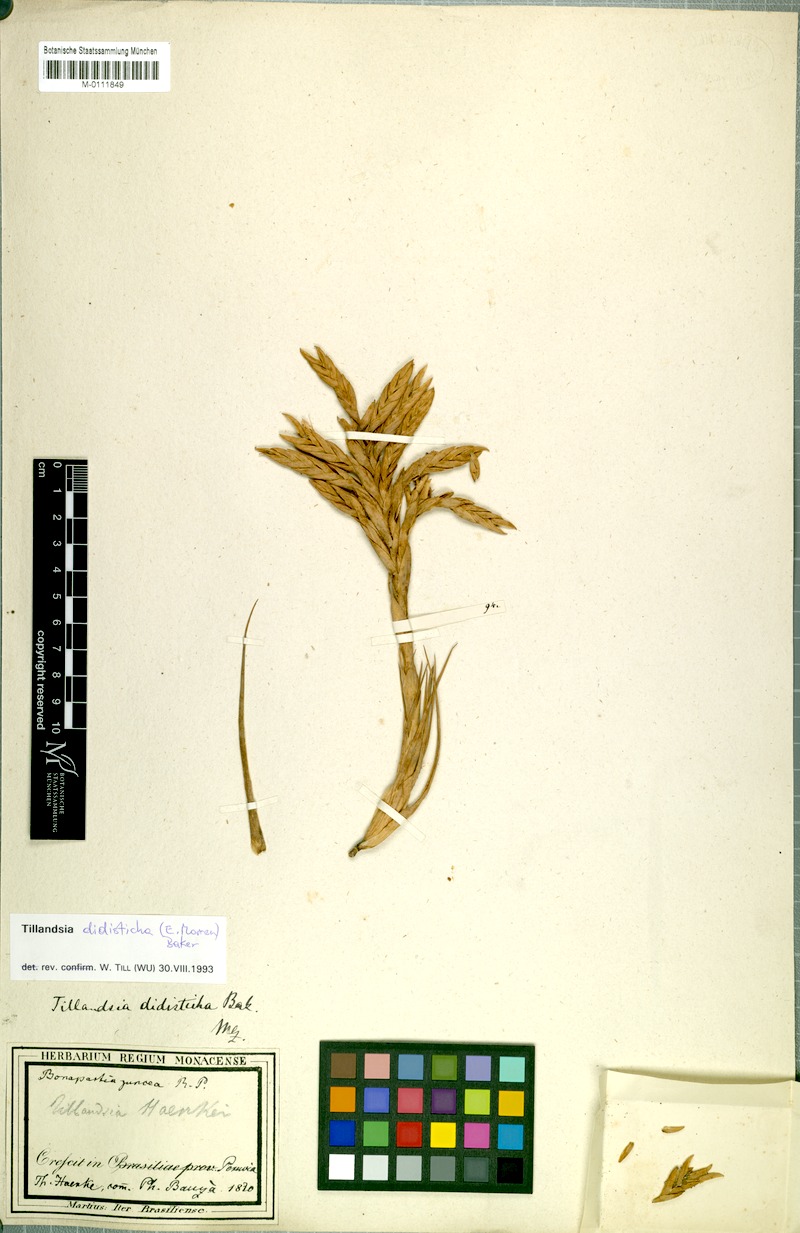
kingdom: Plantae
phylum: Tracheophyta
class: Liliopsida
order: Poales
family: Bromeliaceae
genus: Tillandsia
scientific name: Tillandsia didisticha
